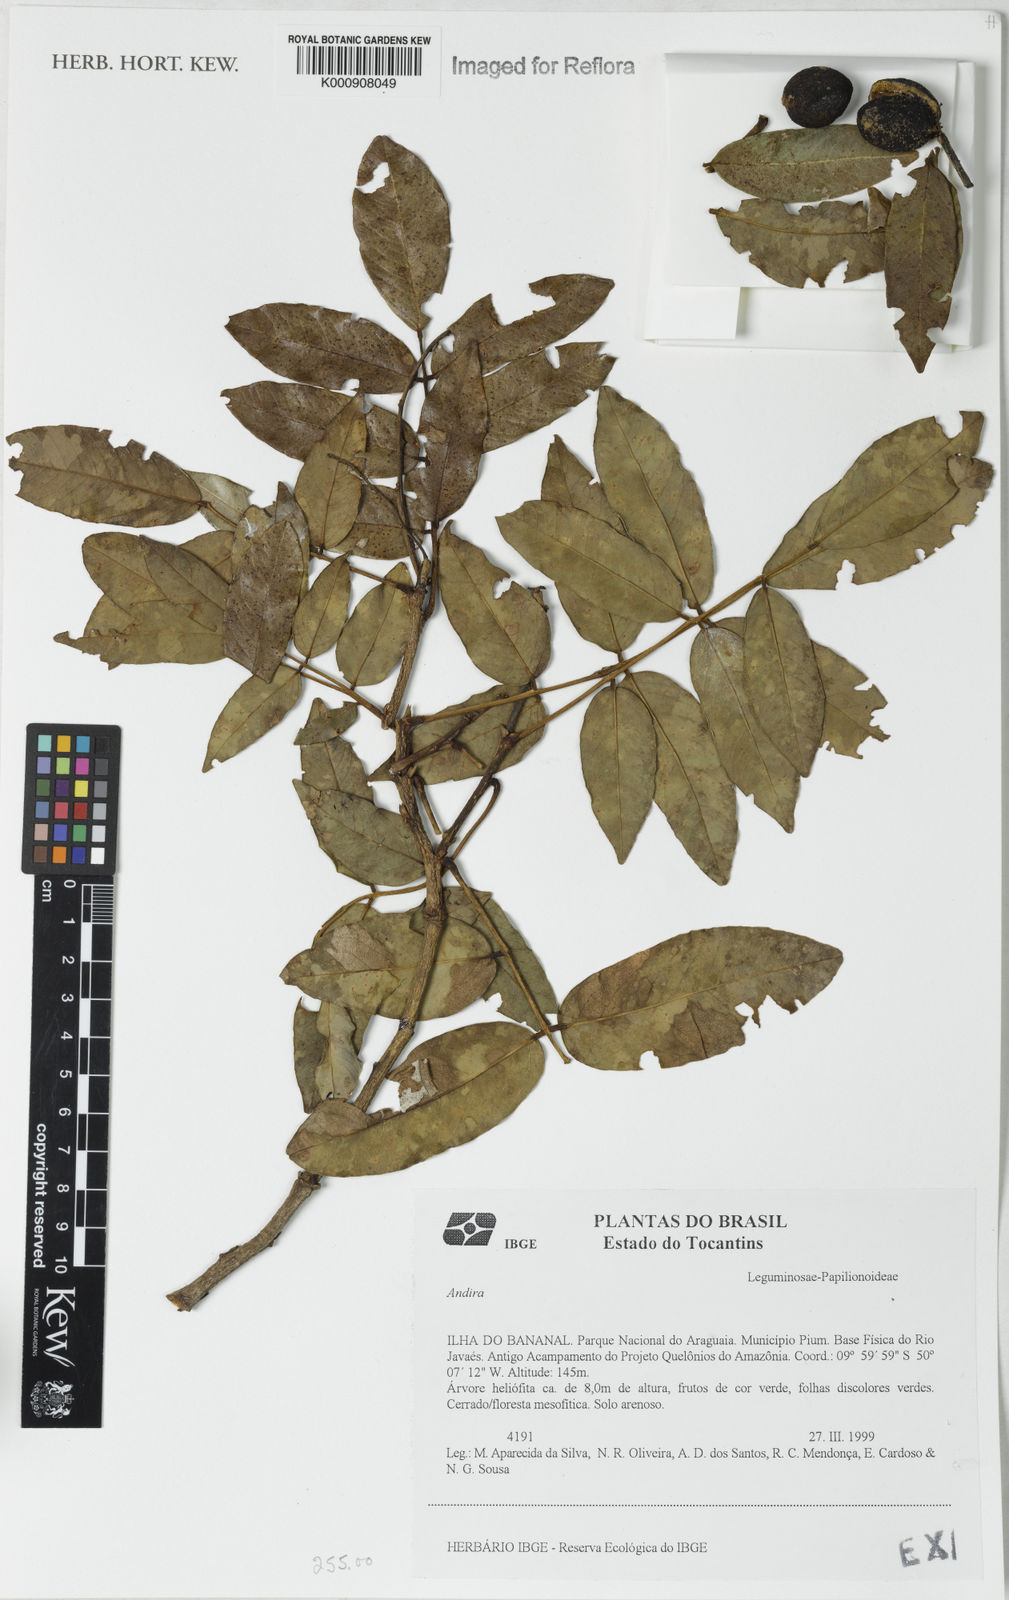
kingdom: Plantae
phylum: Tracheophyta
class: Magnoliopsida
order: Fabales
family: Fabaceae
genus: Andira
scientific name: Andira
